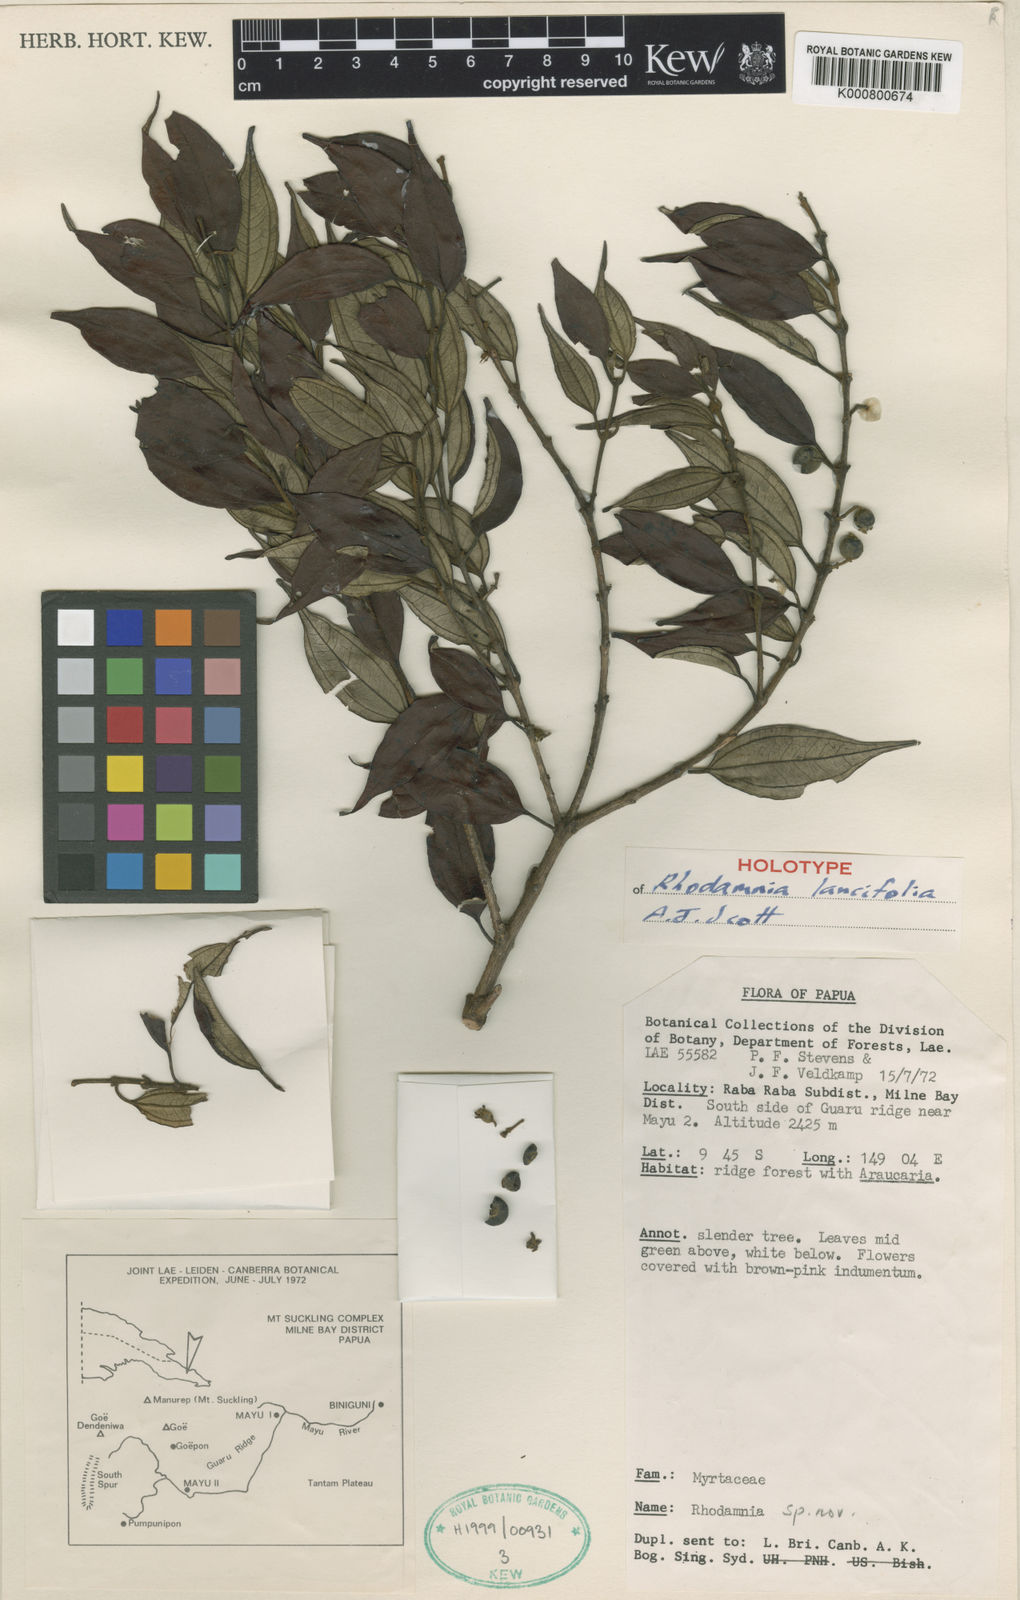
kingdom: Plantae
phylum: Tracheophyta
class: Magnoliopsida
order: Myrtales
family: Myrtaceae
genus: Rhodamnia
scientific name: Rhodamnia lancifolia
